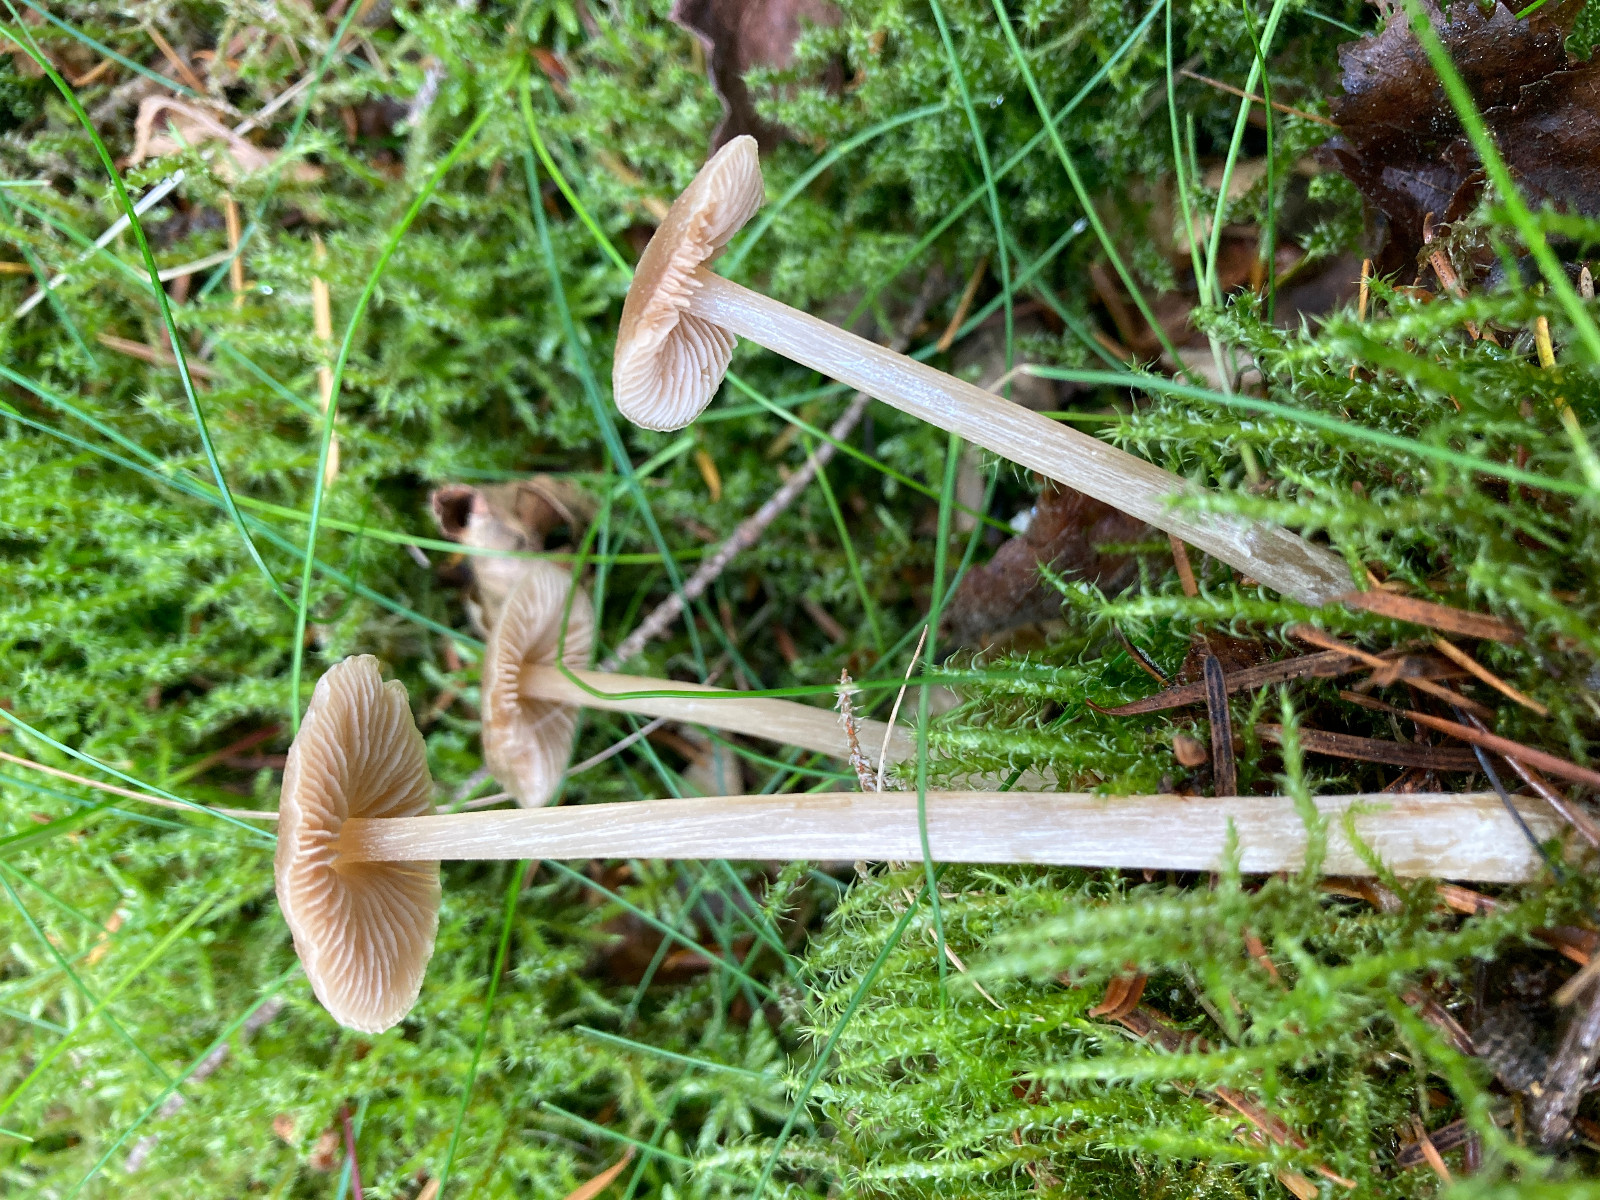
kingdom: Fungi
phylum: Basidiomycota
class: Agaricomycetes
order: Agaricales
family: Entolomataceae
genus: Entoloma
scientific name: Entoloma cetratum
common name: voks-rødblad
